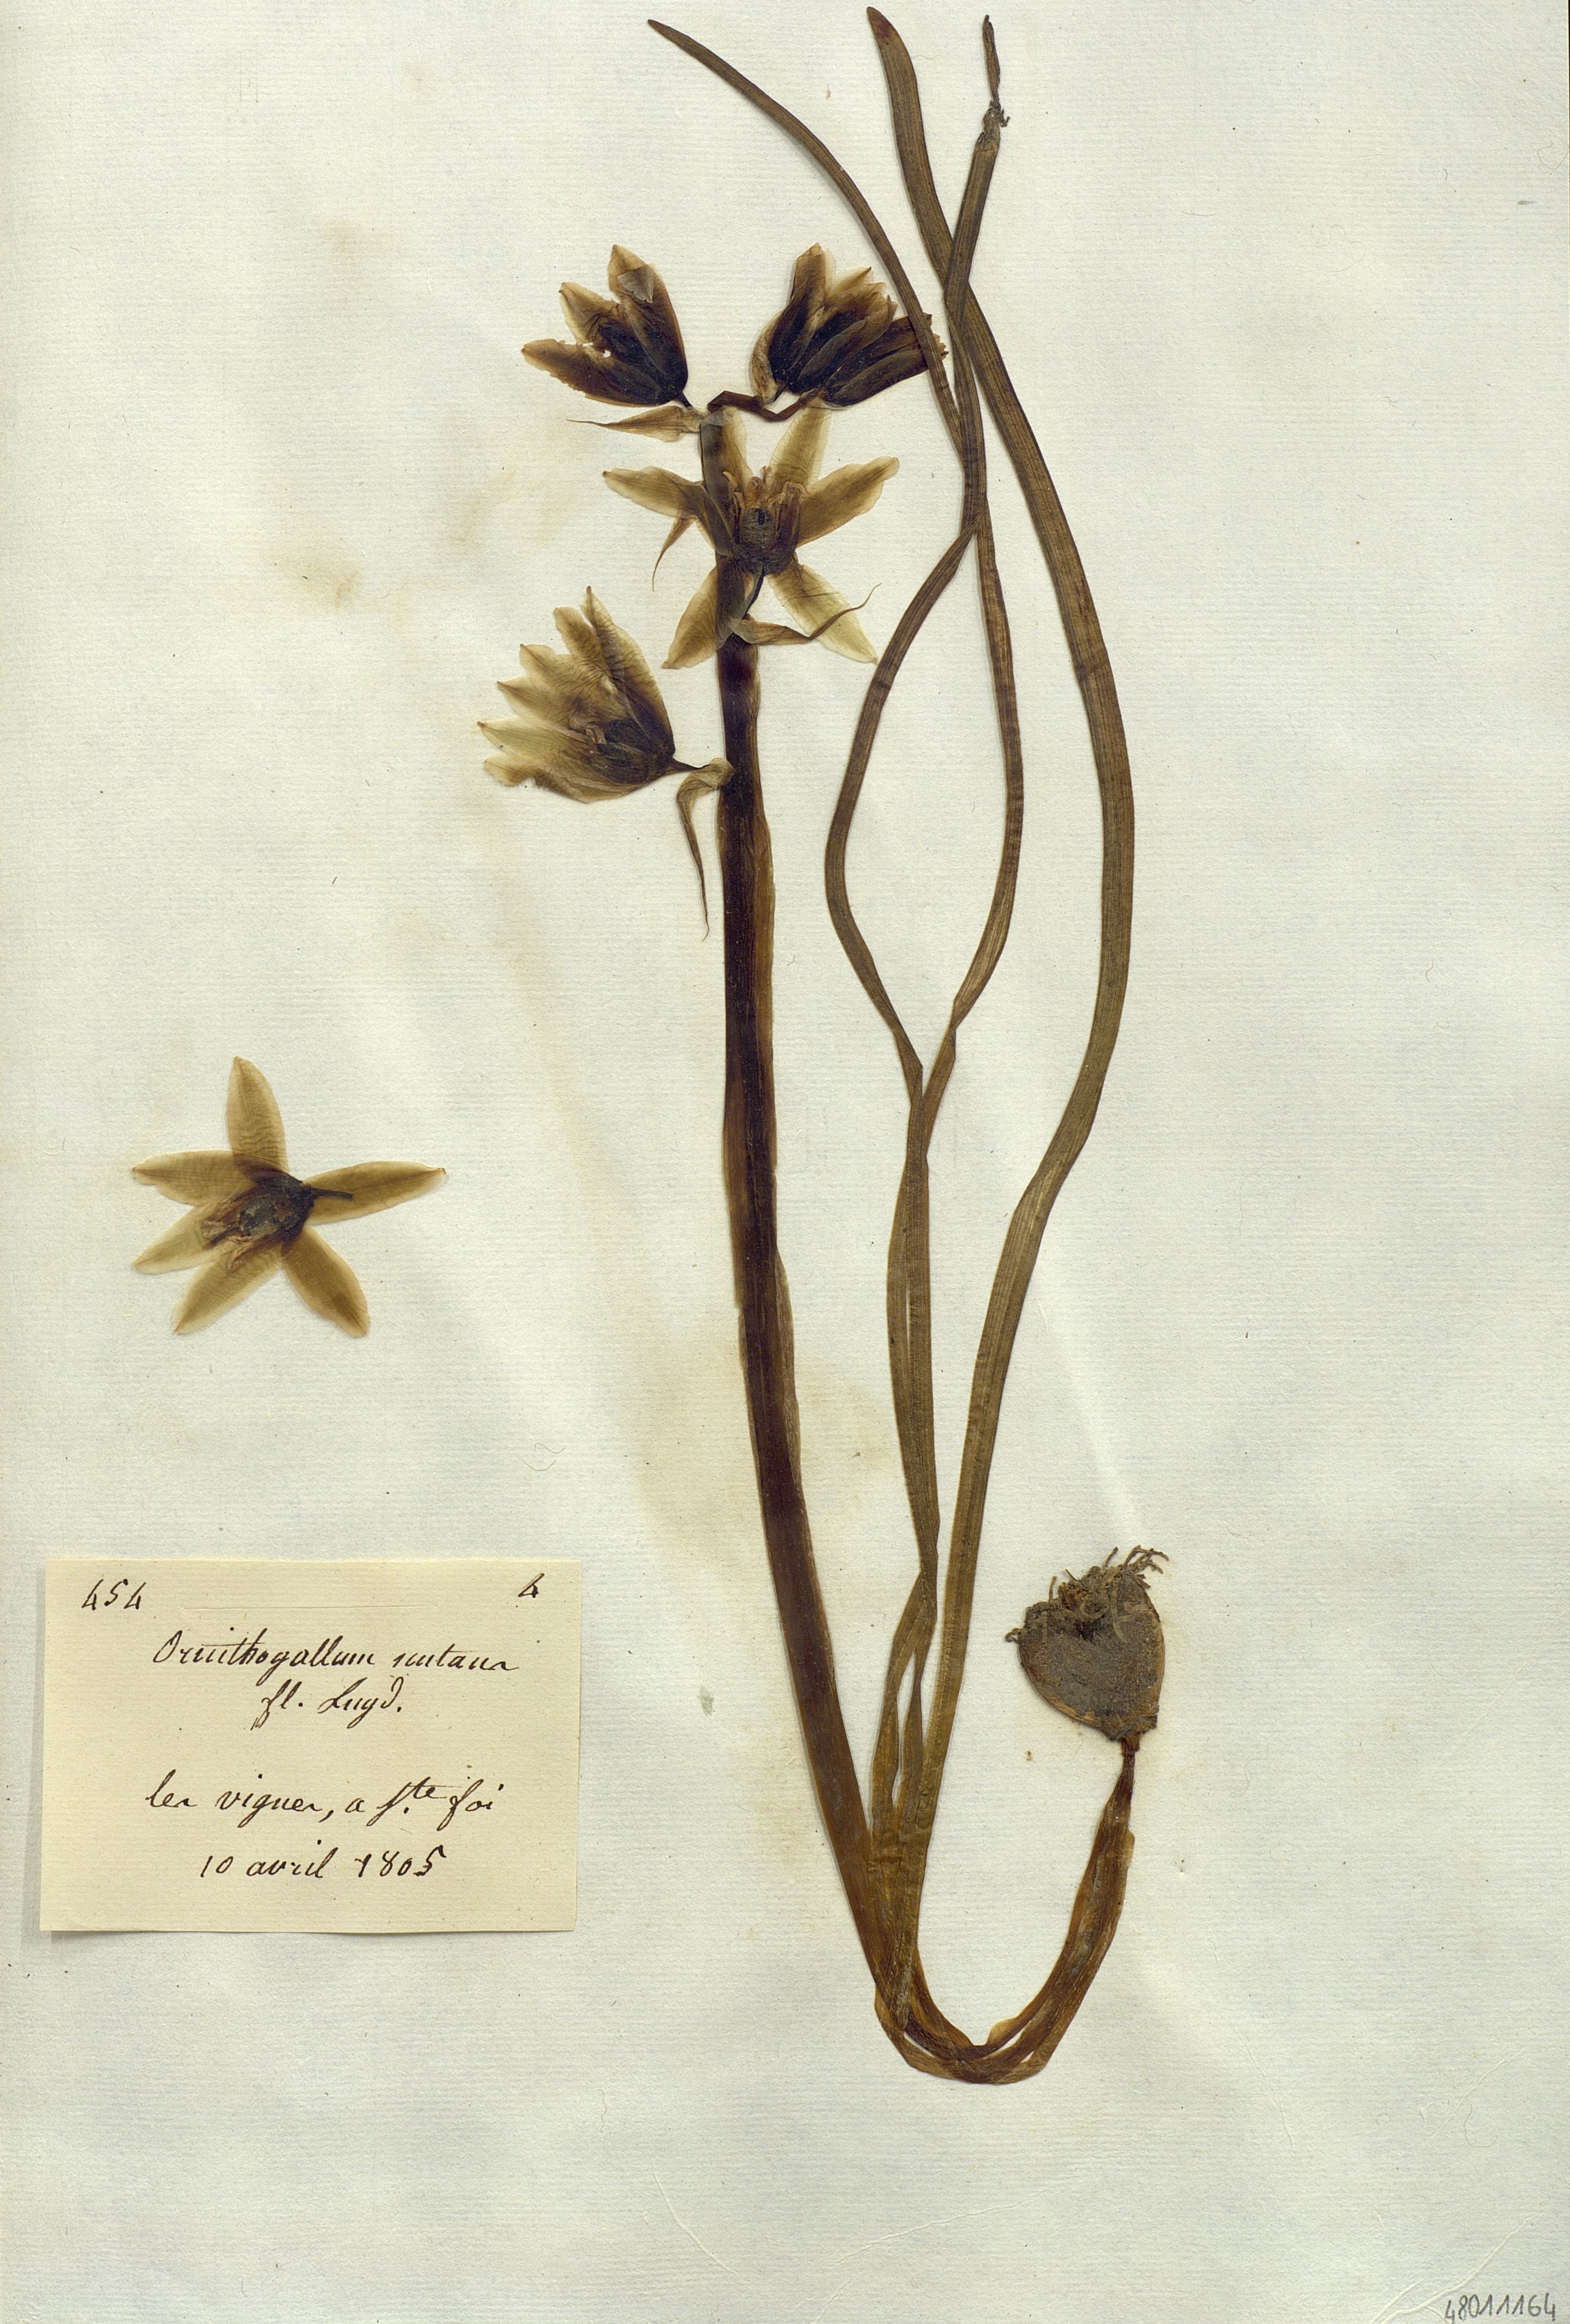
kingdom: Plantae
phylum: Tracheophyta
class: Liliopsida
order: Liliales
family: Liliaceae
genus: Ornithogalum
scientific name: Ornithogalum
